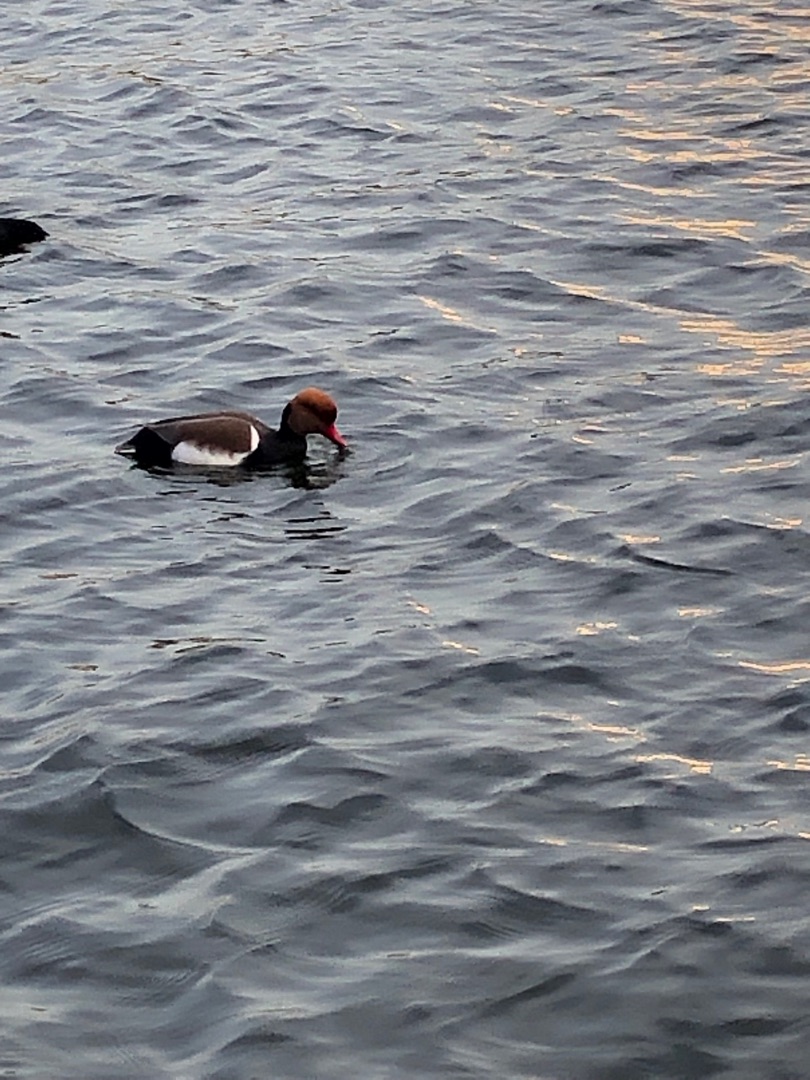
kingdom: Animalia
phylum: Chordata
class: Aves
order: Anseriformes
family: Anatidae
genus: Netta
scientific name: Netta rufina
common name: Rødhovedet and
